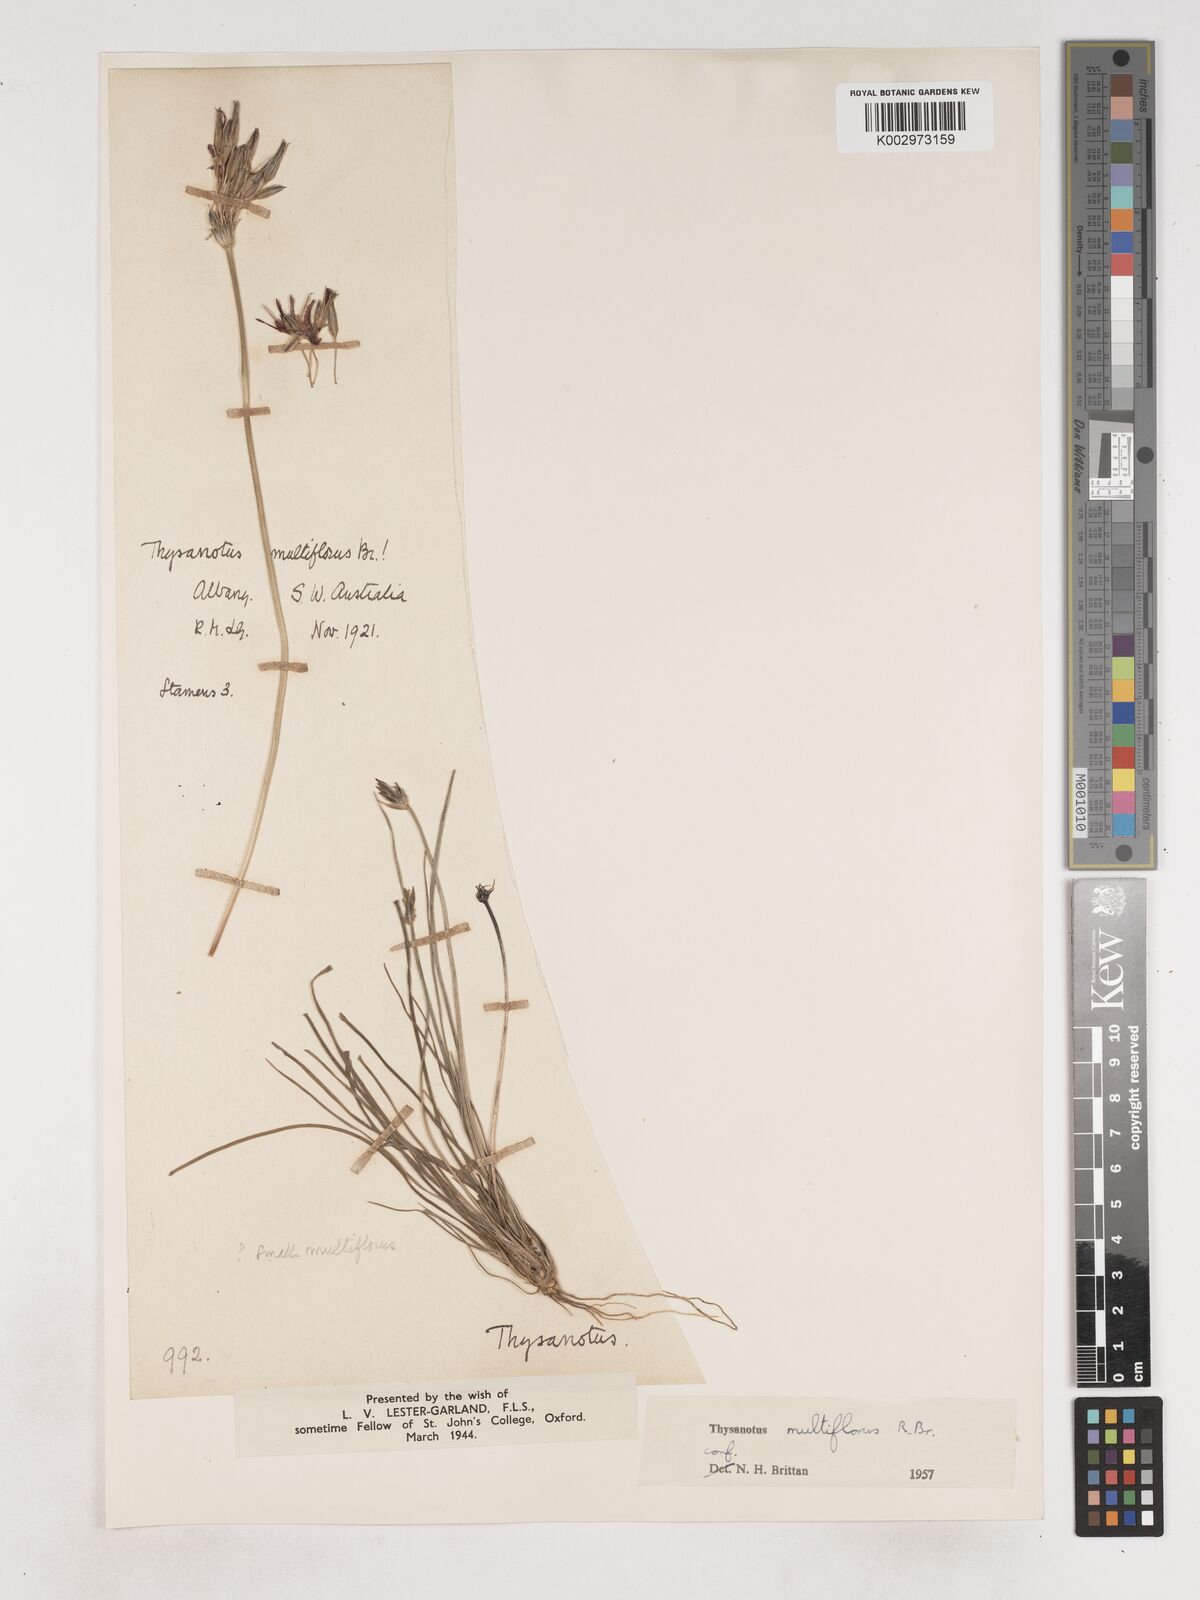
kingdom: Plantae
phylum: Tracheophyta
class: Liliopsida
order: Asparagales
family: Asparagaceae
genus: Thysanotus
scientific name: Thysanotus multiflorus
